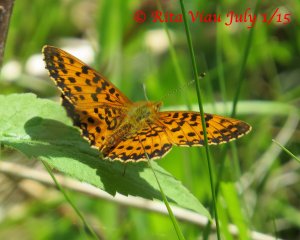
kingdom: Animalia
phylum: Arthropoda
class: Insecta
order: Lepidoptera
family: Nymphalidae
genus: Boloria
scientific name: Boloria selene
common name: Silver-bordered Fritillary
